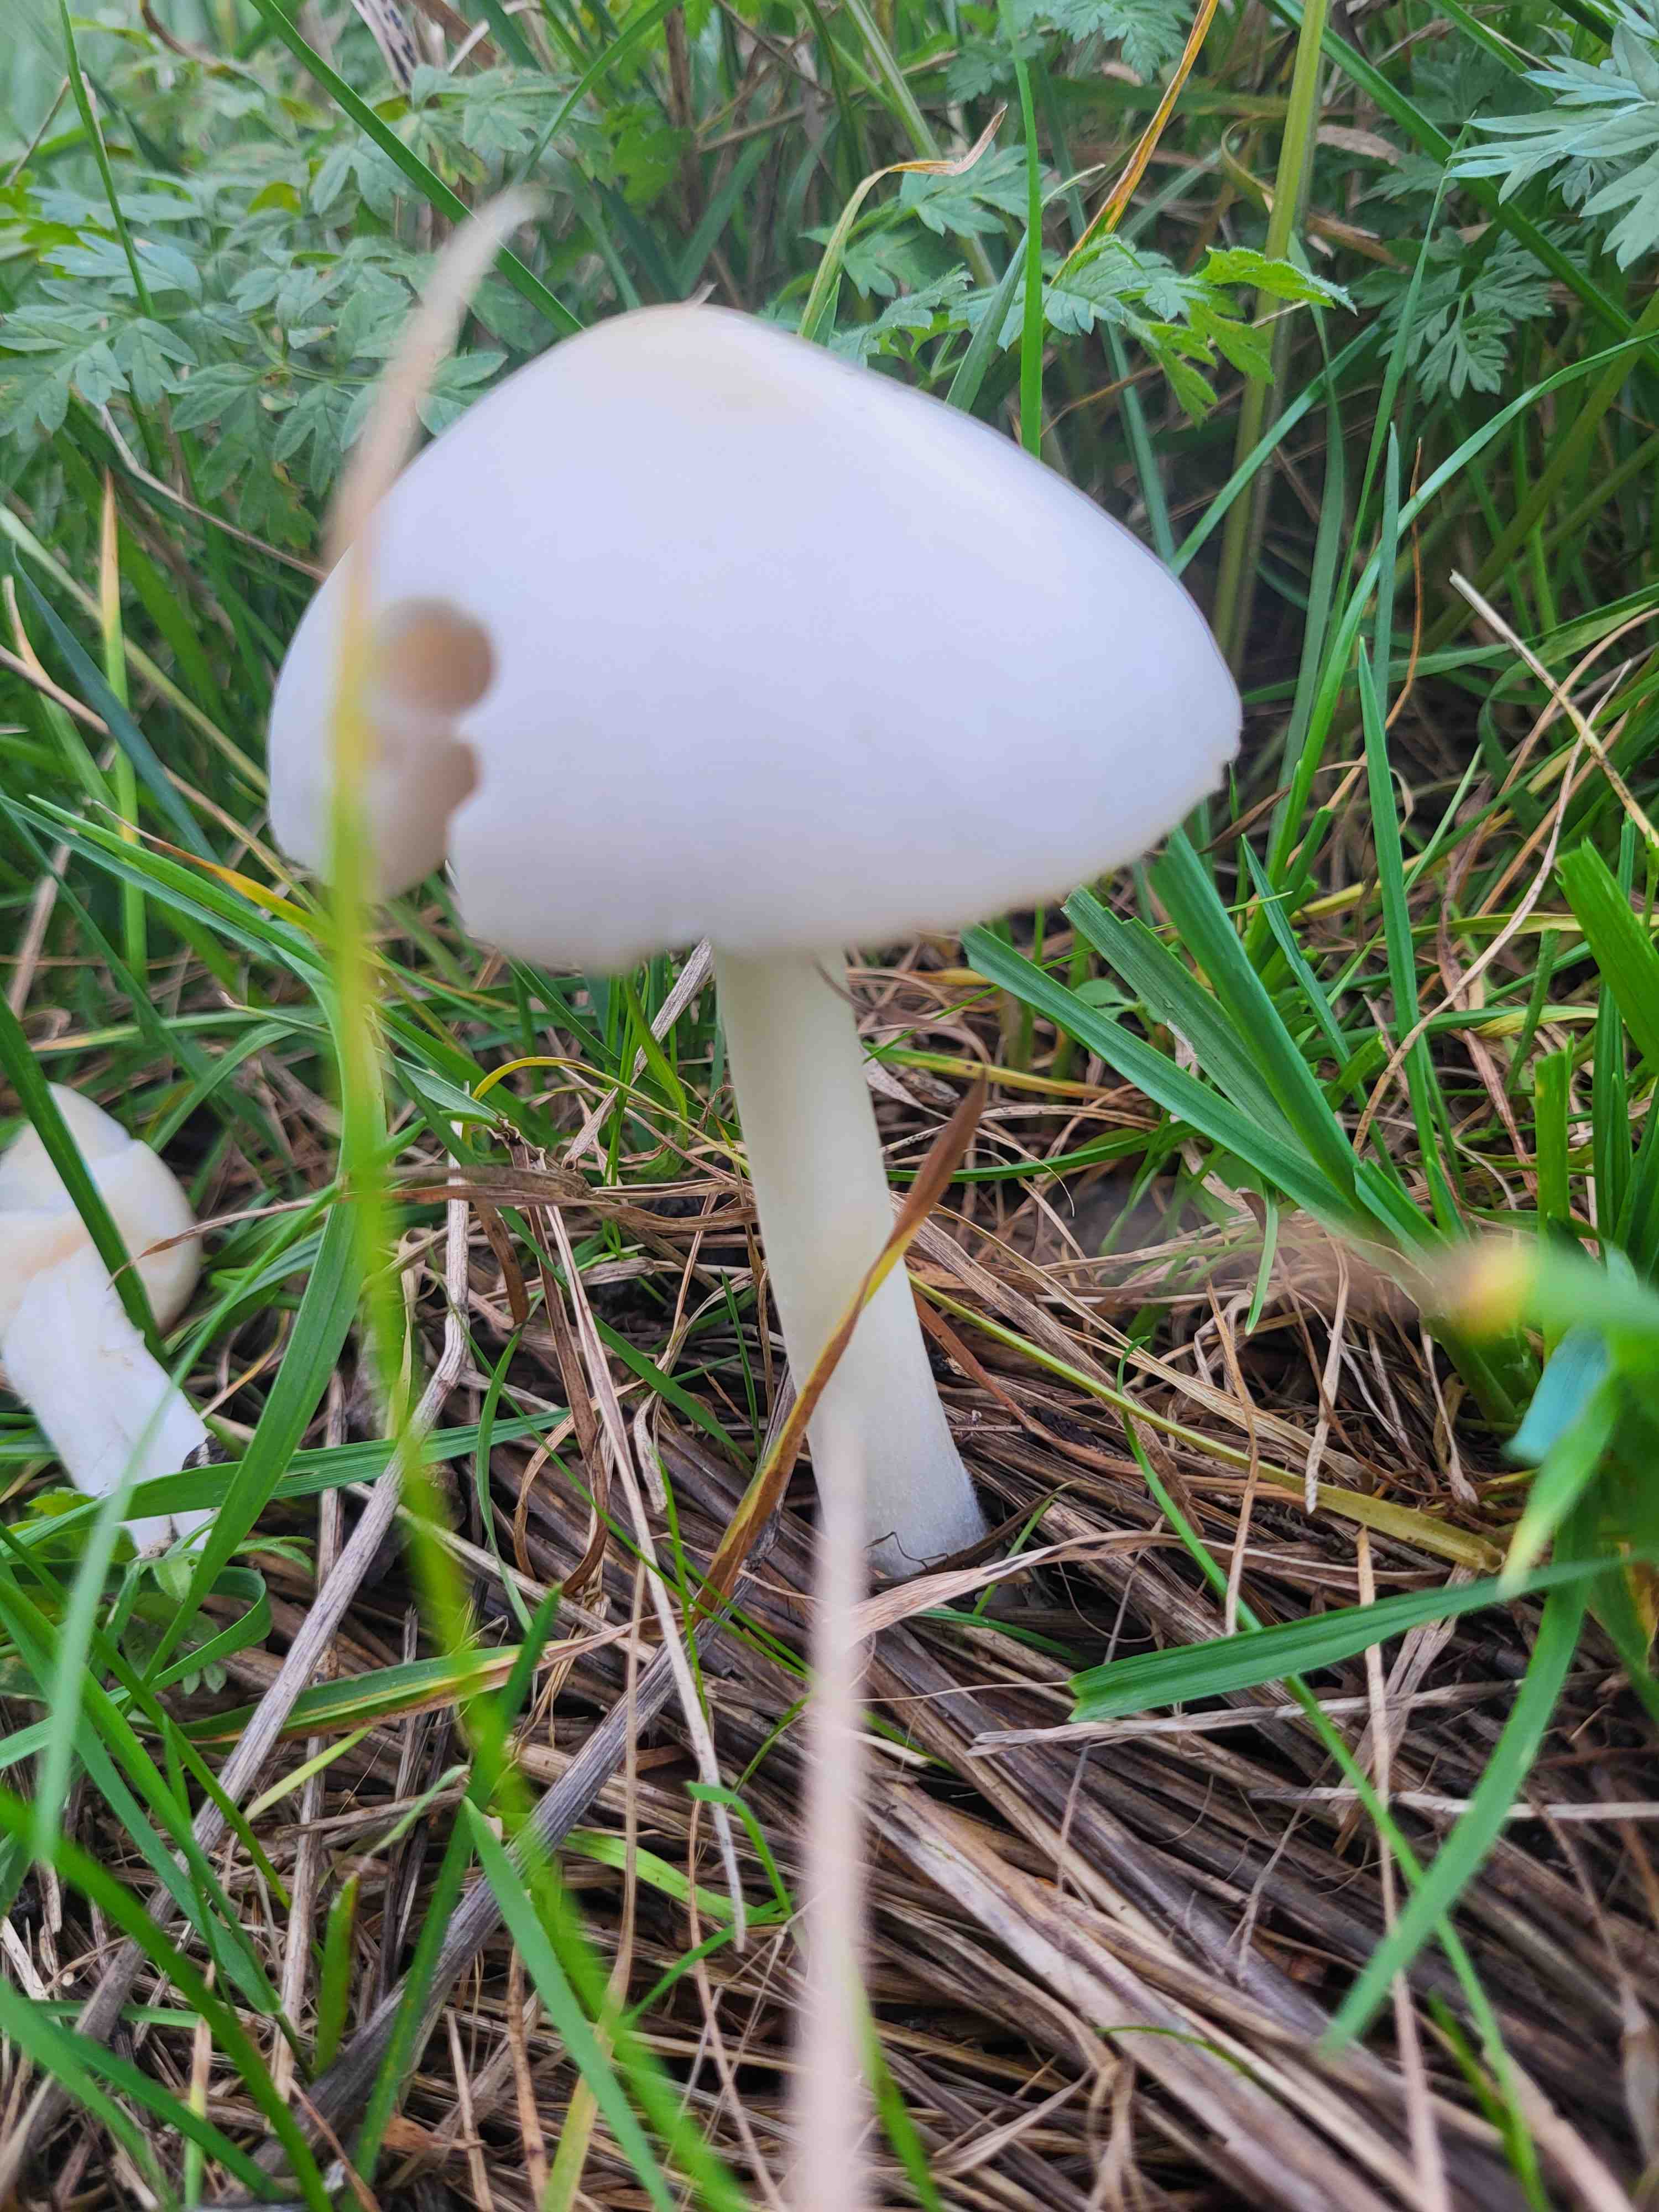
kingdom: Fungi
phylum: Basidiomycota
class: Agaricomycetes
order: Agaricales
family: Pluteaceae
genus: Volvariella
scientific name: Volvariella
